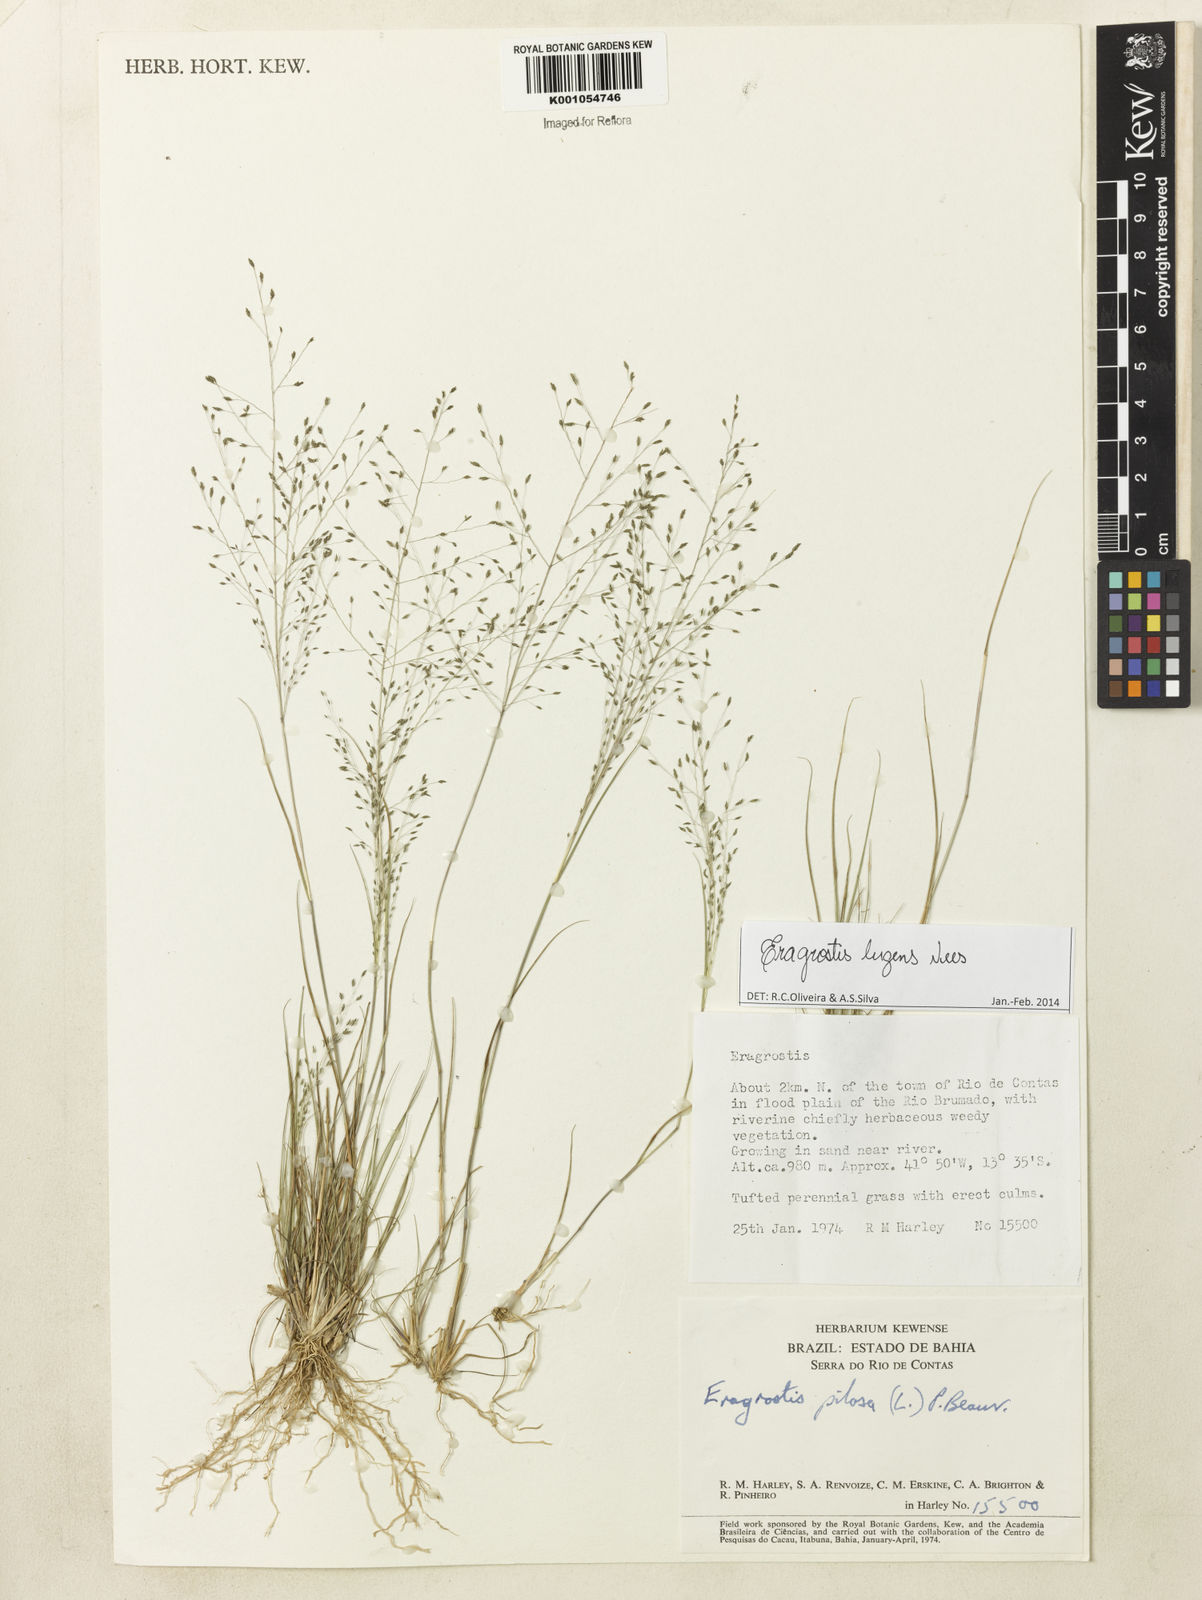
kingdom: Plantae
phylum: Tracheophyta
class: Liliopsida
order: Poales
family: Poaceae
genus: Eragrostis
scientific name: Eragrostis lugens
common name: Mourning love grass
